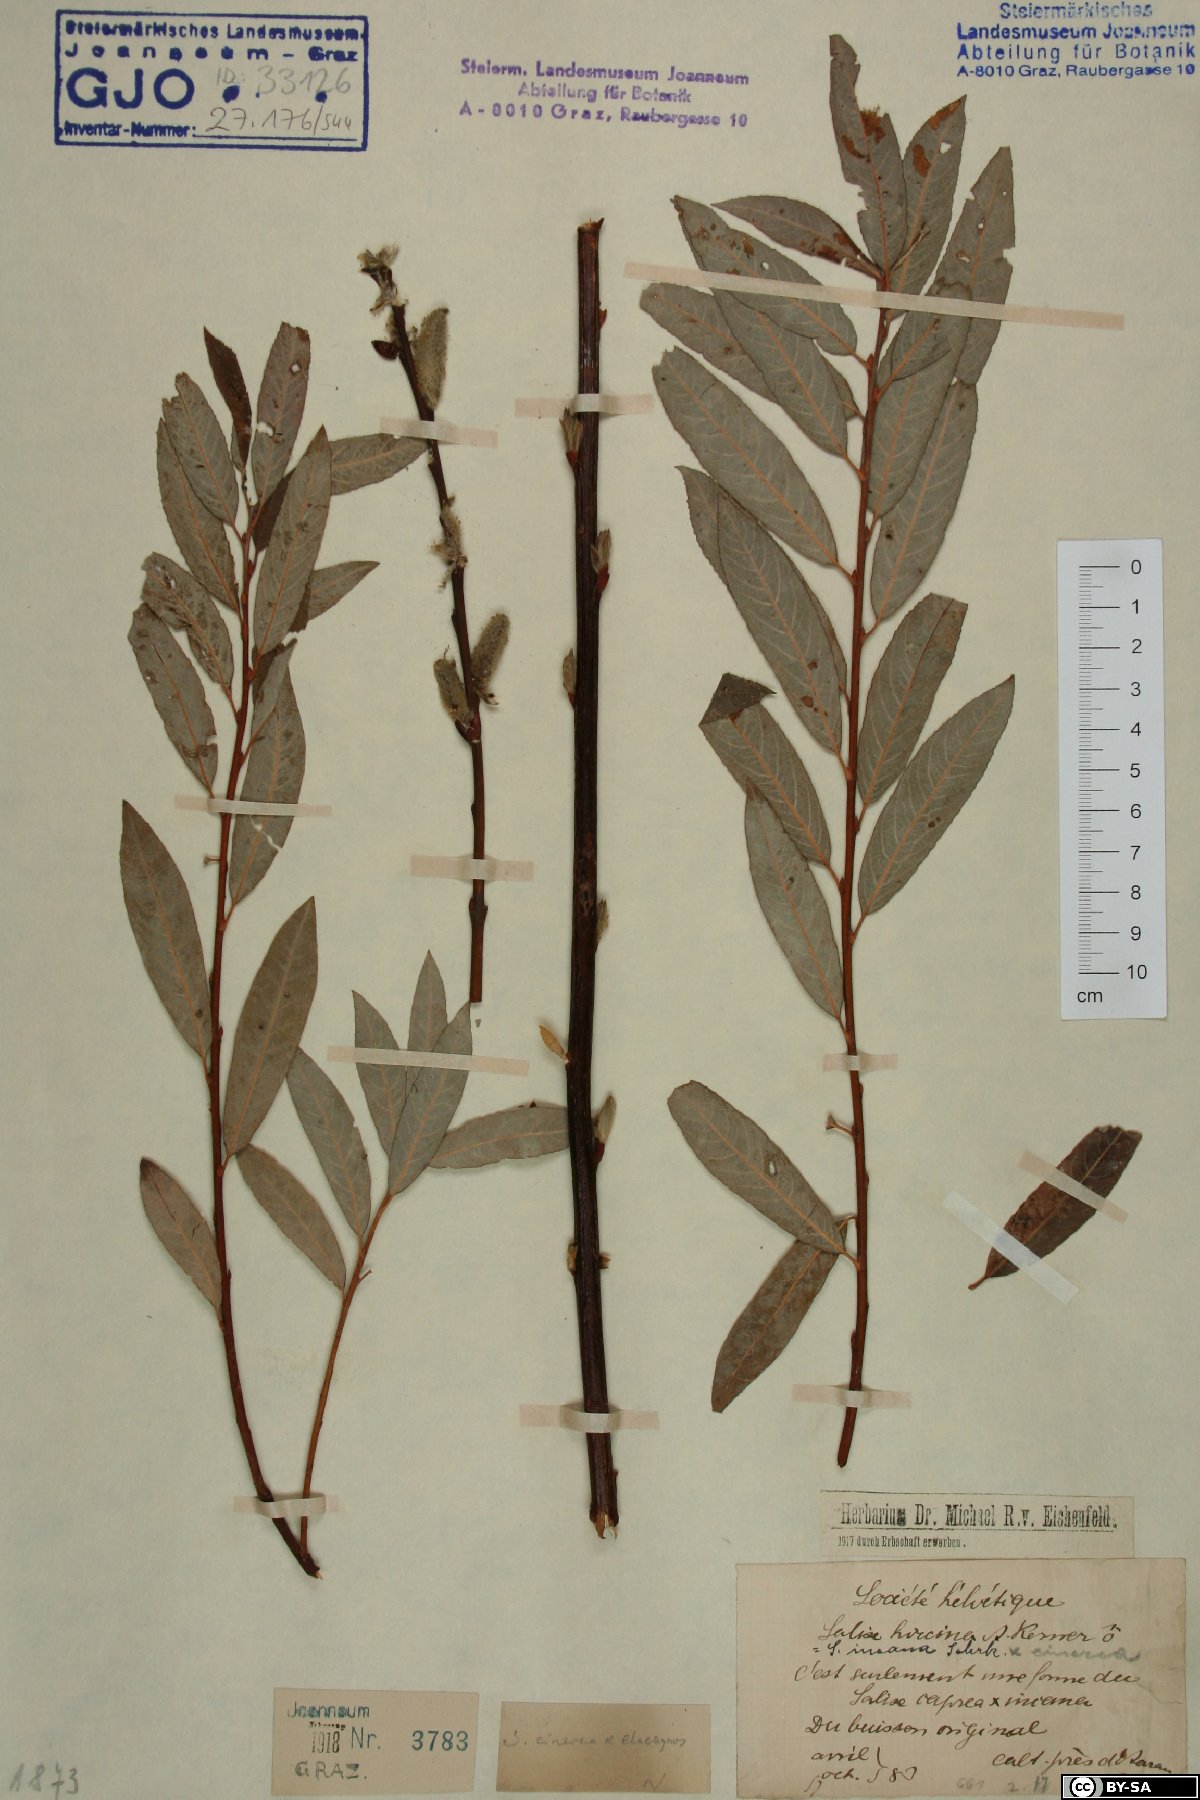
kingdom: Plantae
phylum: Tracheophyta
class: Magnoliopsida
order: Malpighiales
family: Salicaceae
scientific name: Salicaceae
